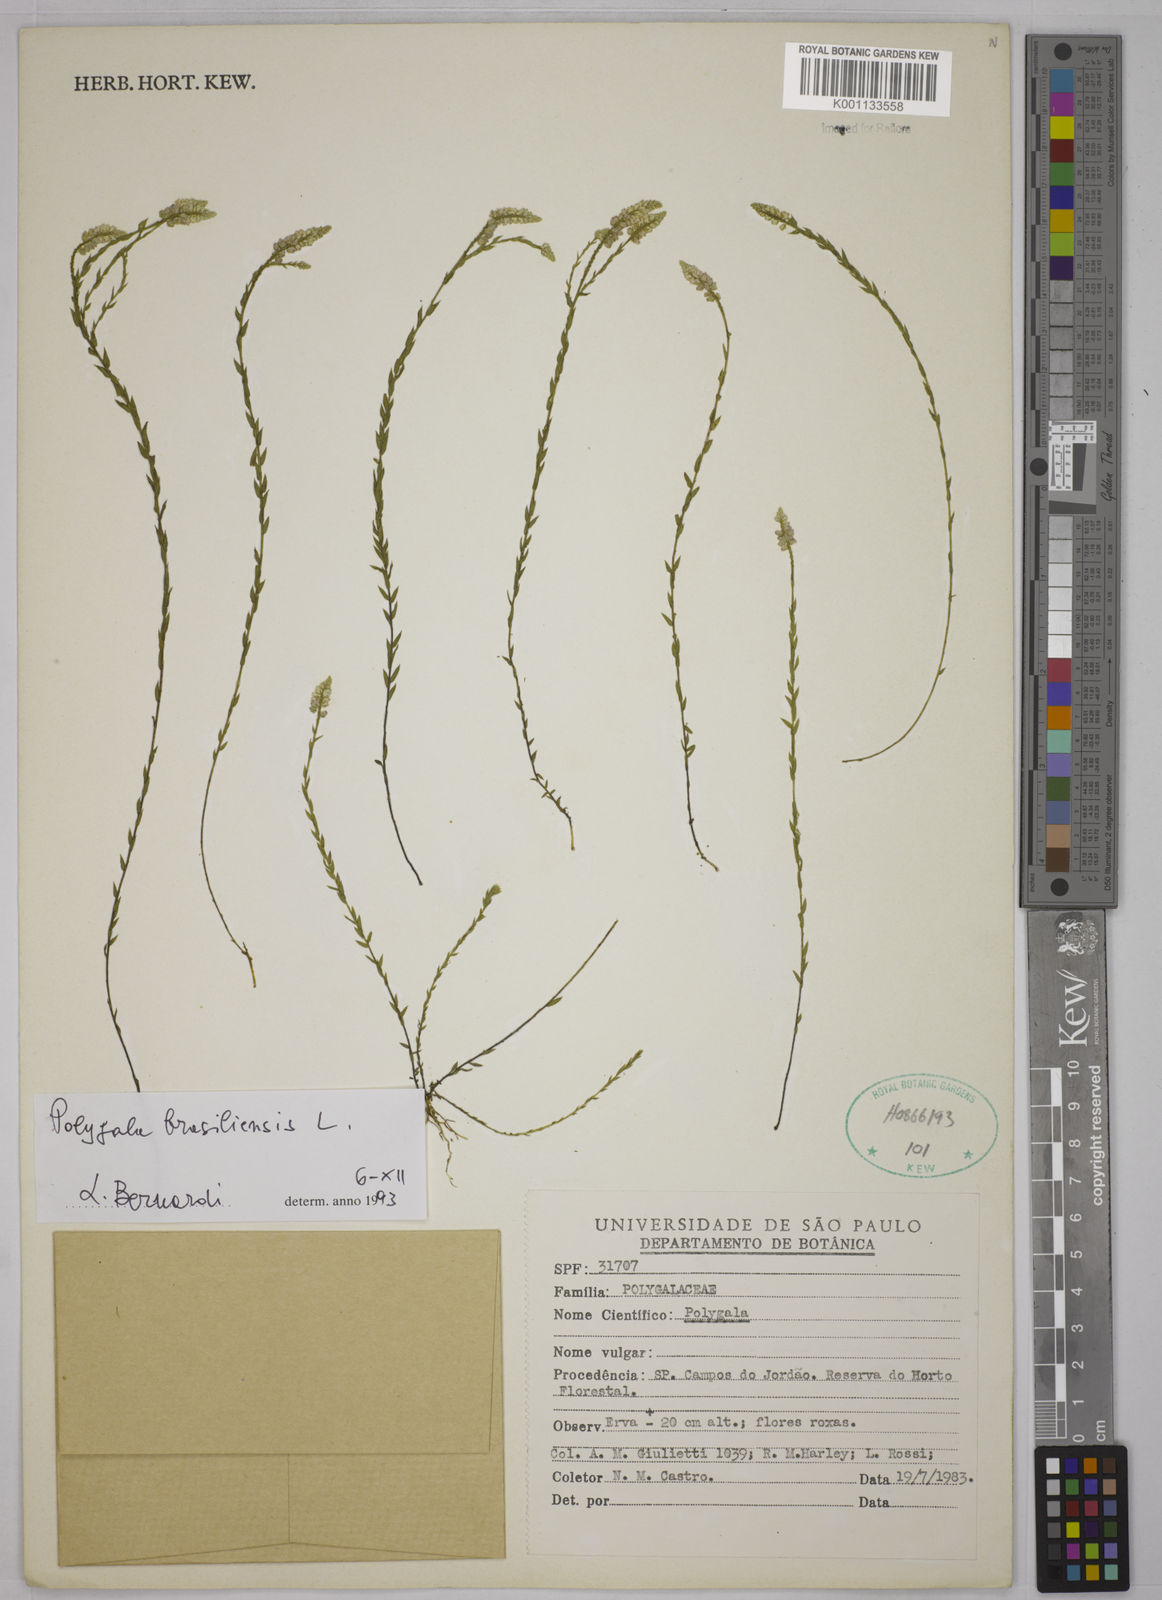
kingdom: Plantae
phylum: Tracheophyta
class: Magnoliopsida
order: Fabales
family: Polygalaceae
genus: Polygala
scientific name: Polygala brasiliensis
